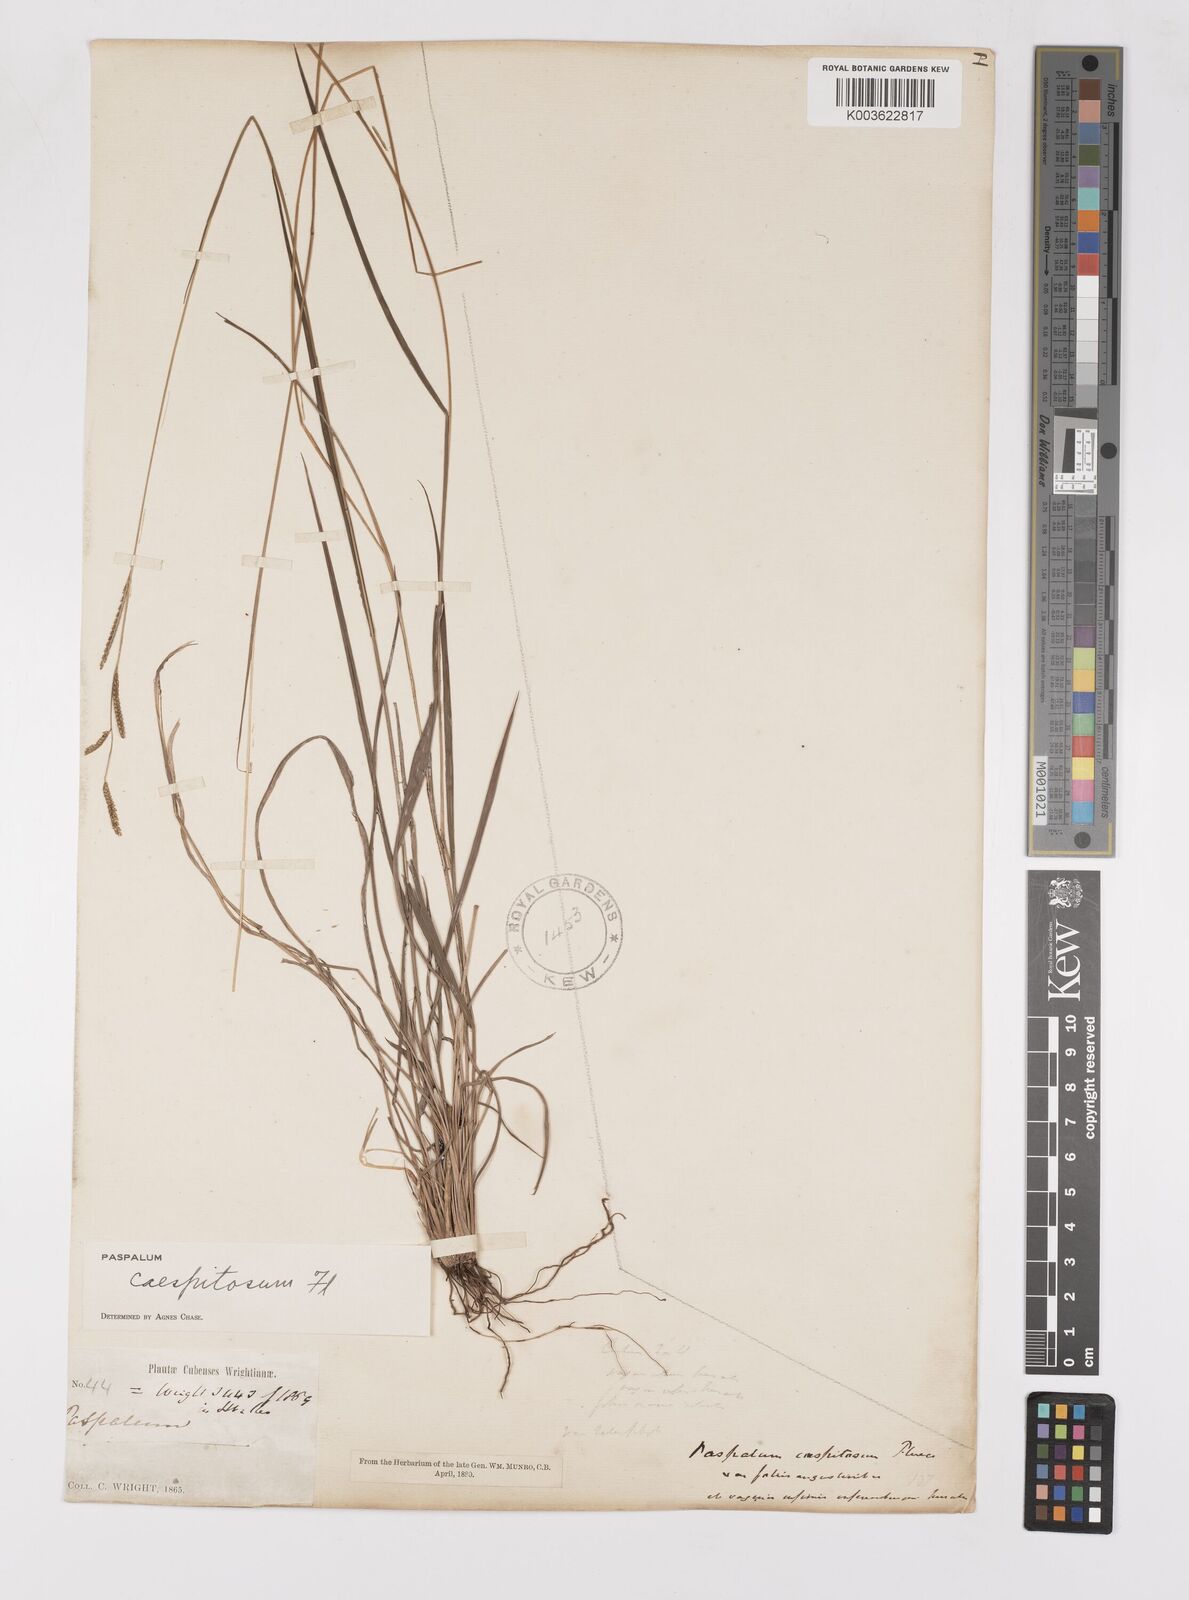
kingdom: Plantae
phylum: Tracheophyta
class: Liliopsida
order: Poales
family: Poaceae
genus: Paspalum
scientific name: Paspalum caespitosum
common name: Blue crowngrass
